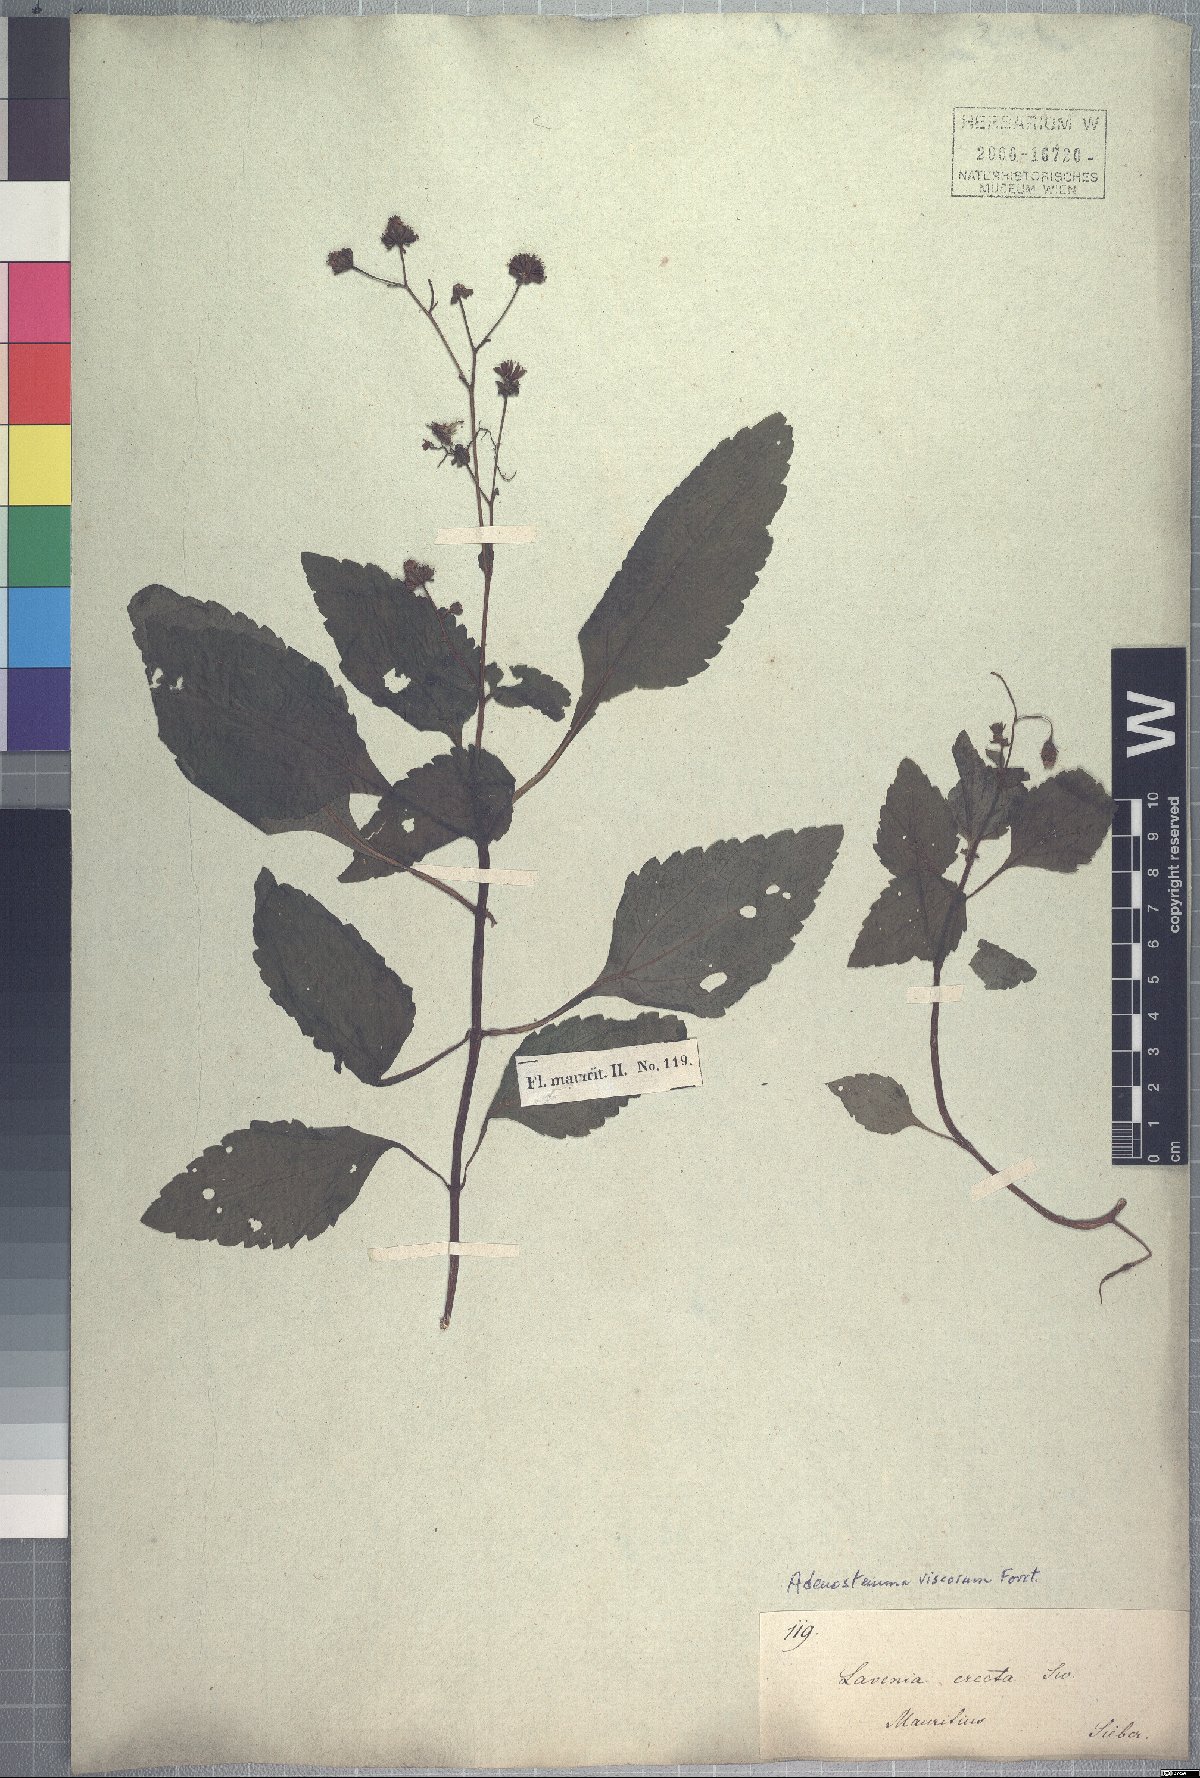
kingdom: Plantae
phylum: Tracheophyta
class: Magnoliopsida
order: Asterales
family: Asteraceae
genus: Adenostemma
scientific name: Adenostemma mauritianum
